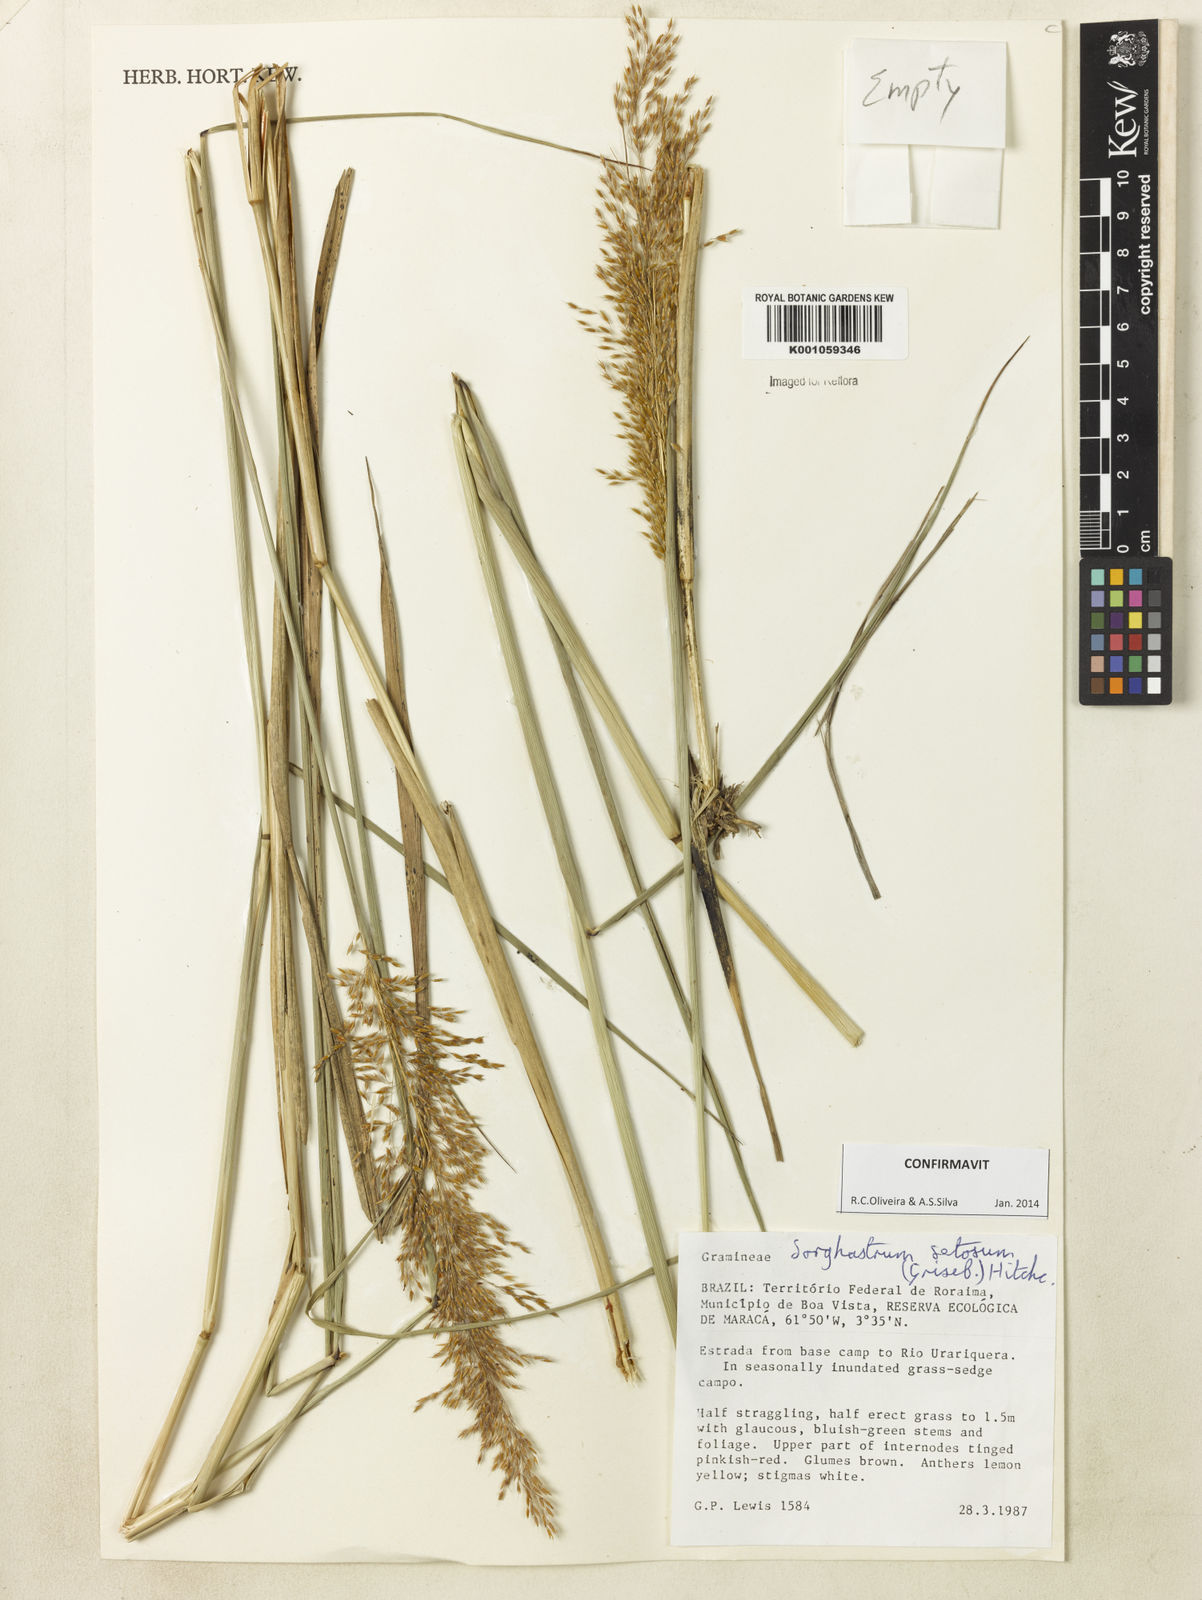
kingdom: Plantae
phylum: Tracheophyta
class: Liliopsida
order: Poales
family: Poaceae
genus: Sorghastrum
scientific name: Sorghastrum setosum
